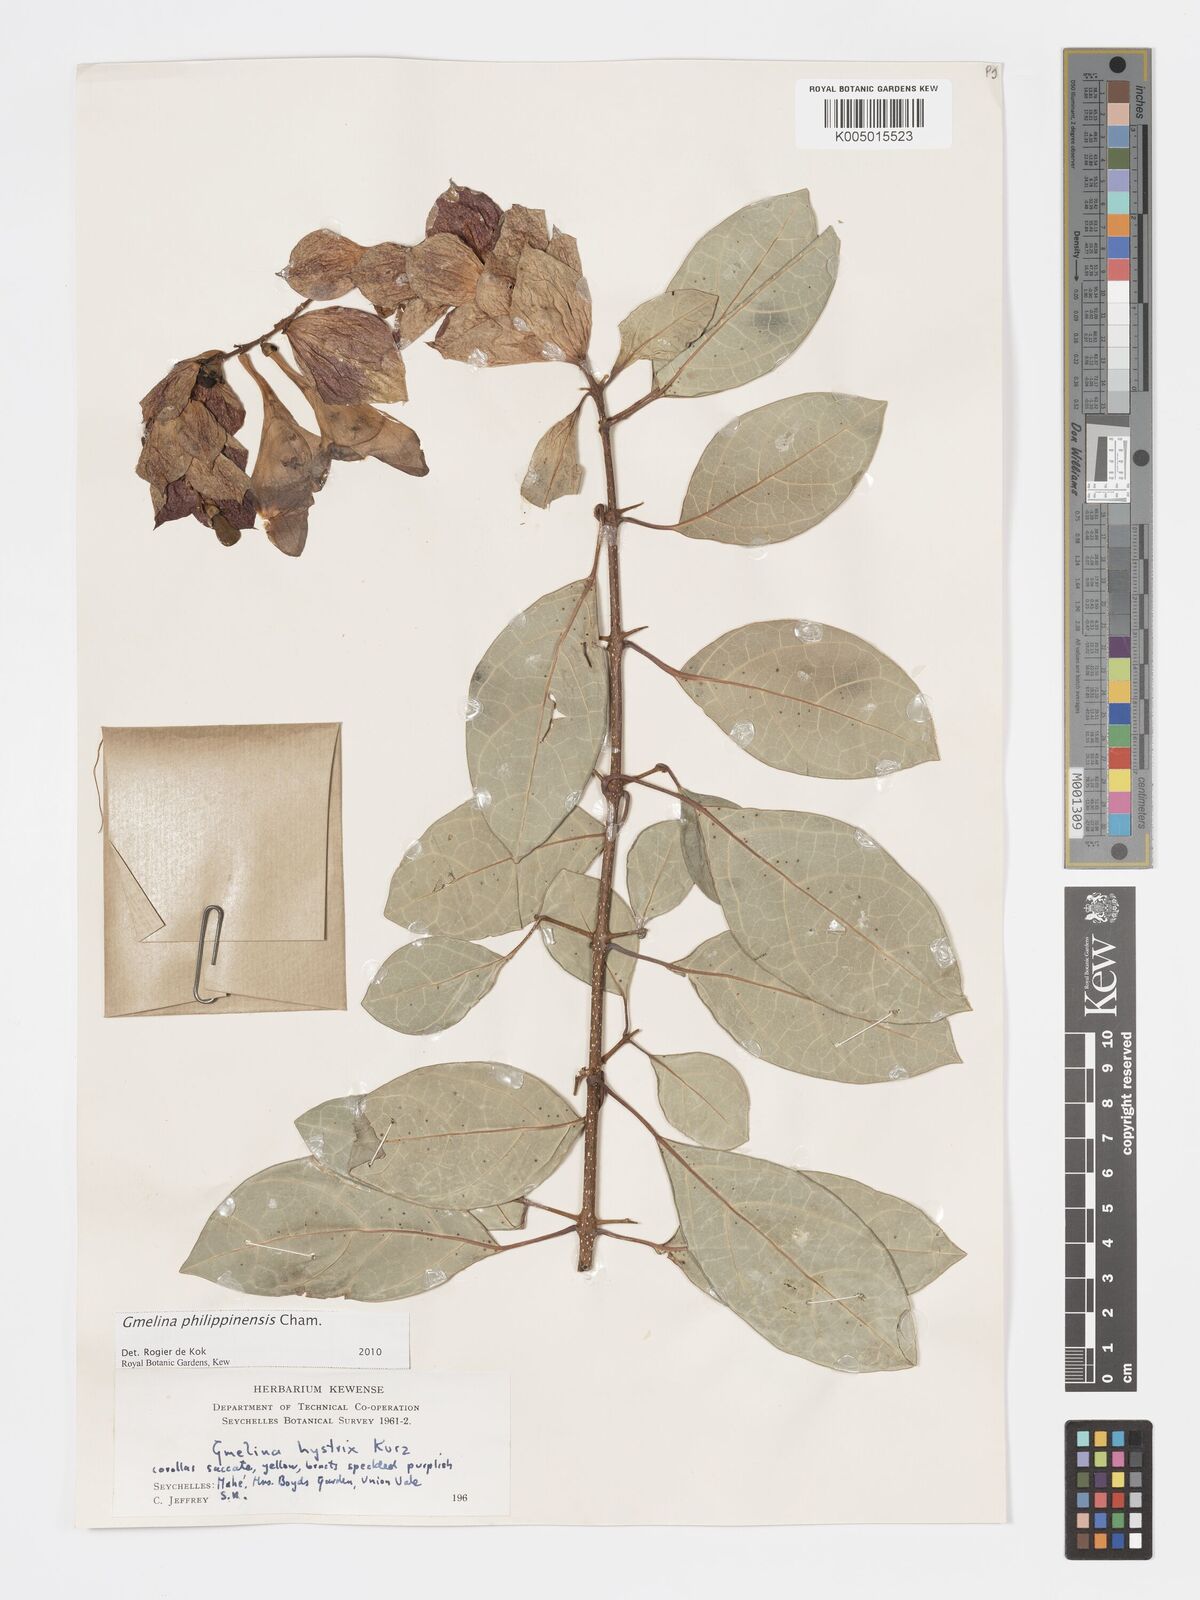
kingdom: Plantae
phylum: Tracheophyta
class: Magnoliopsida
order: Lamiales
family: Lamiaceae
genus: Gmelina
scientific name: Gmelina philippensis
